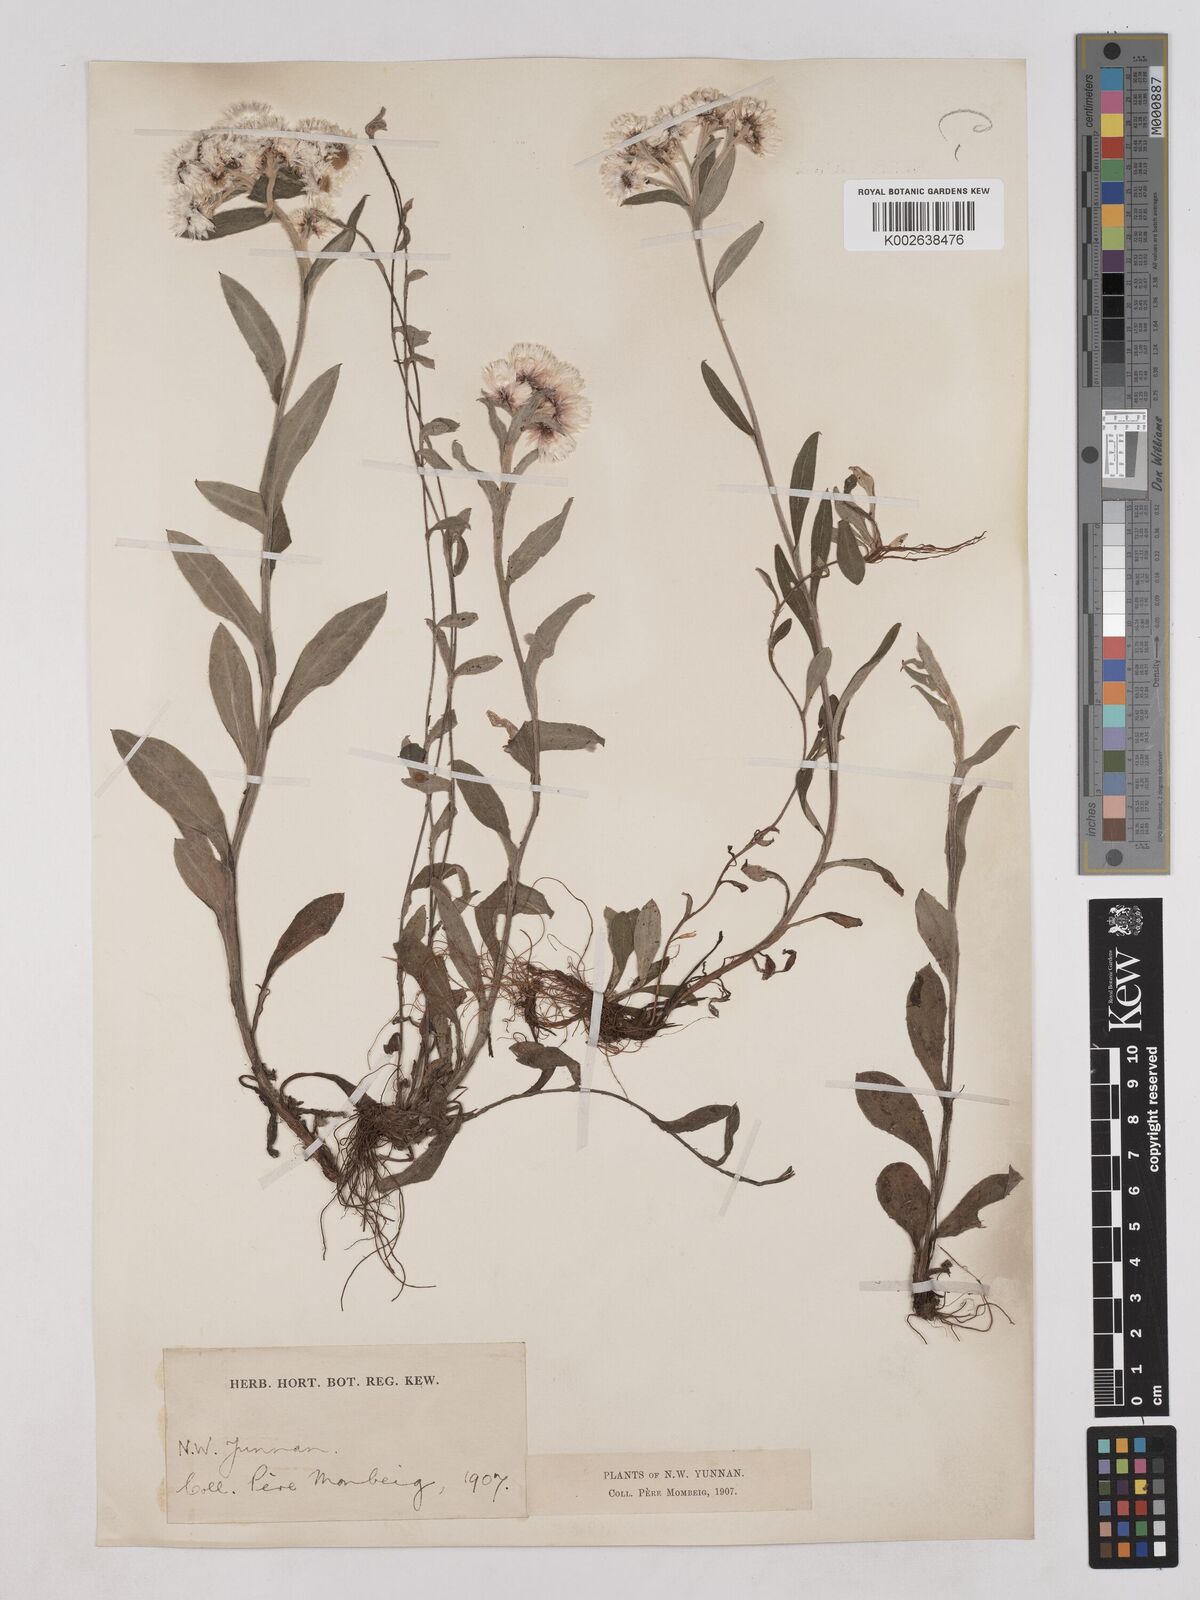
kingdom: Plantae
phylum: Tracheophyta
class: Magnoliopsida
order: Asterales
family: Asteraceae
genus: Anaphalis
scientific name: Anaphalis nepalensis
